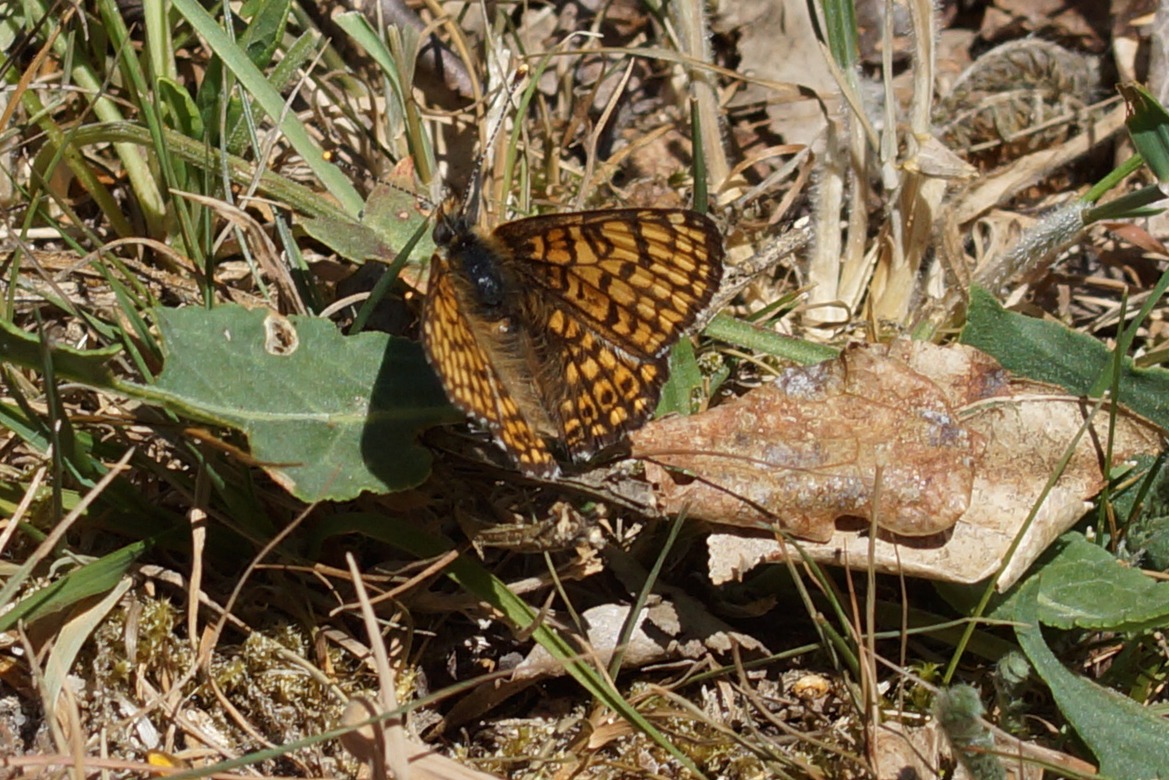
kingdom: Animalia
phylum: Arthropoda
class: Insecta
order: Lepidoptera
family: Nymphalidae
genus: Melitaea
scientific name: Melitaea cinxia
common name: Okkergul pletvinge
